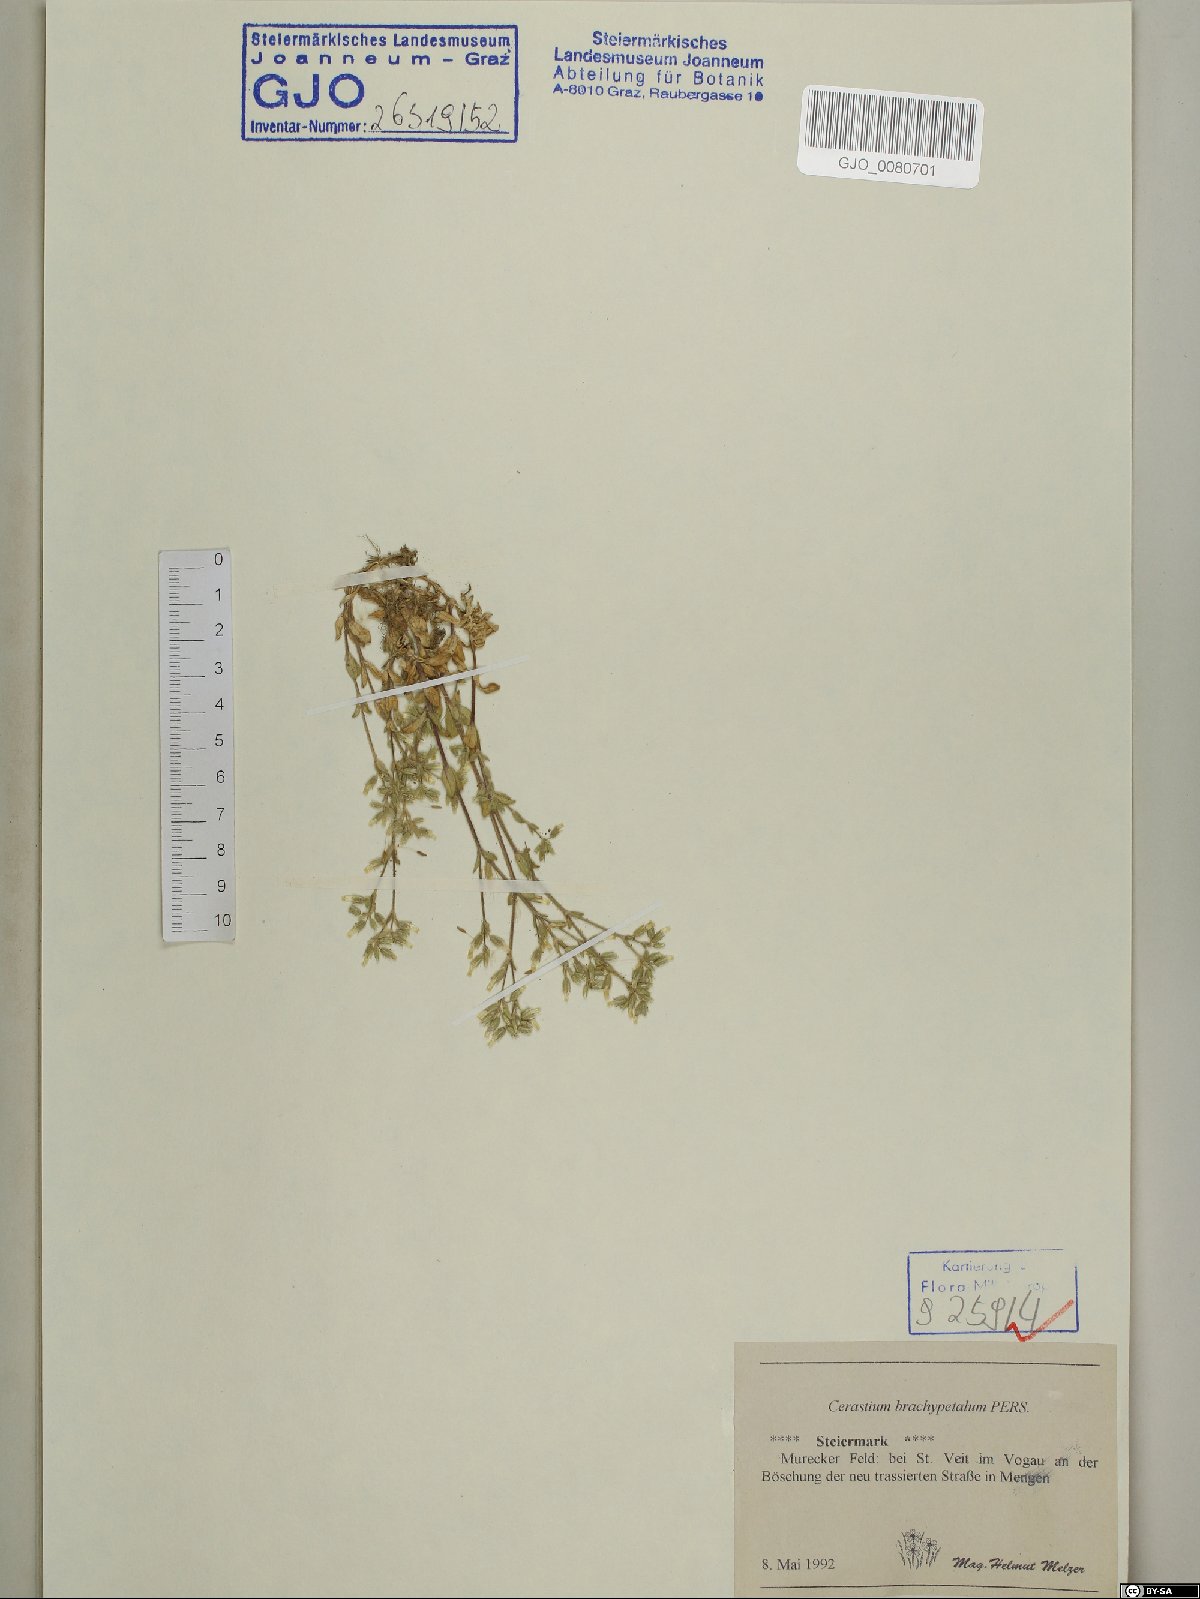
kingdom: Plantae
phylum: Tracheophyta
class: Magnoliopsida
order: Caryophyllales
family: Caryophyllaceae
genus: Cerastium
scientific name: Cerastium brachypetalum
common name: Grey mouse-ear
